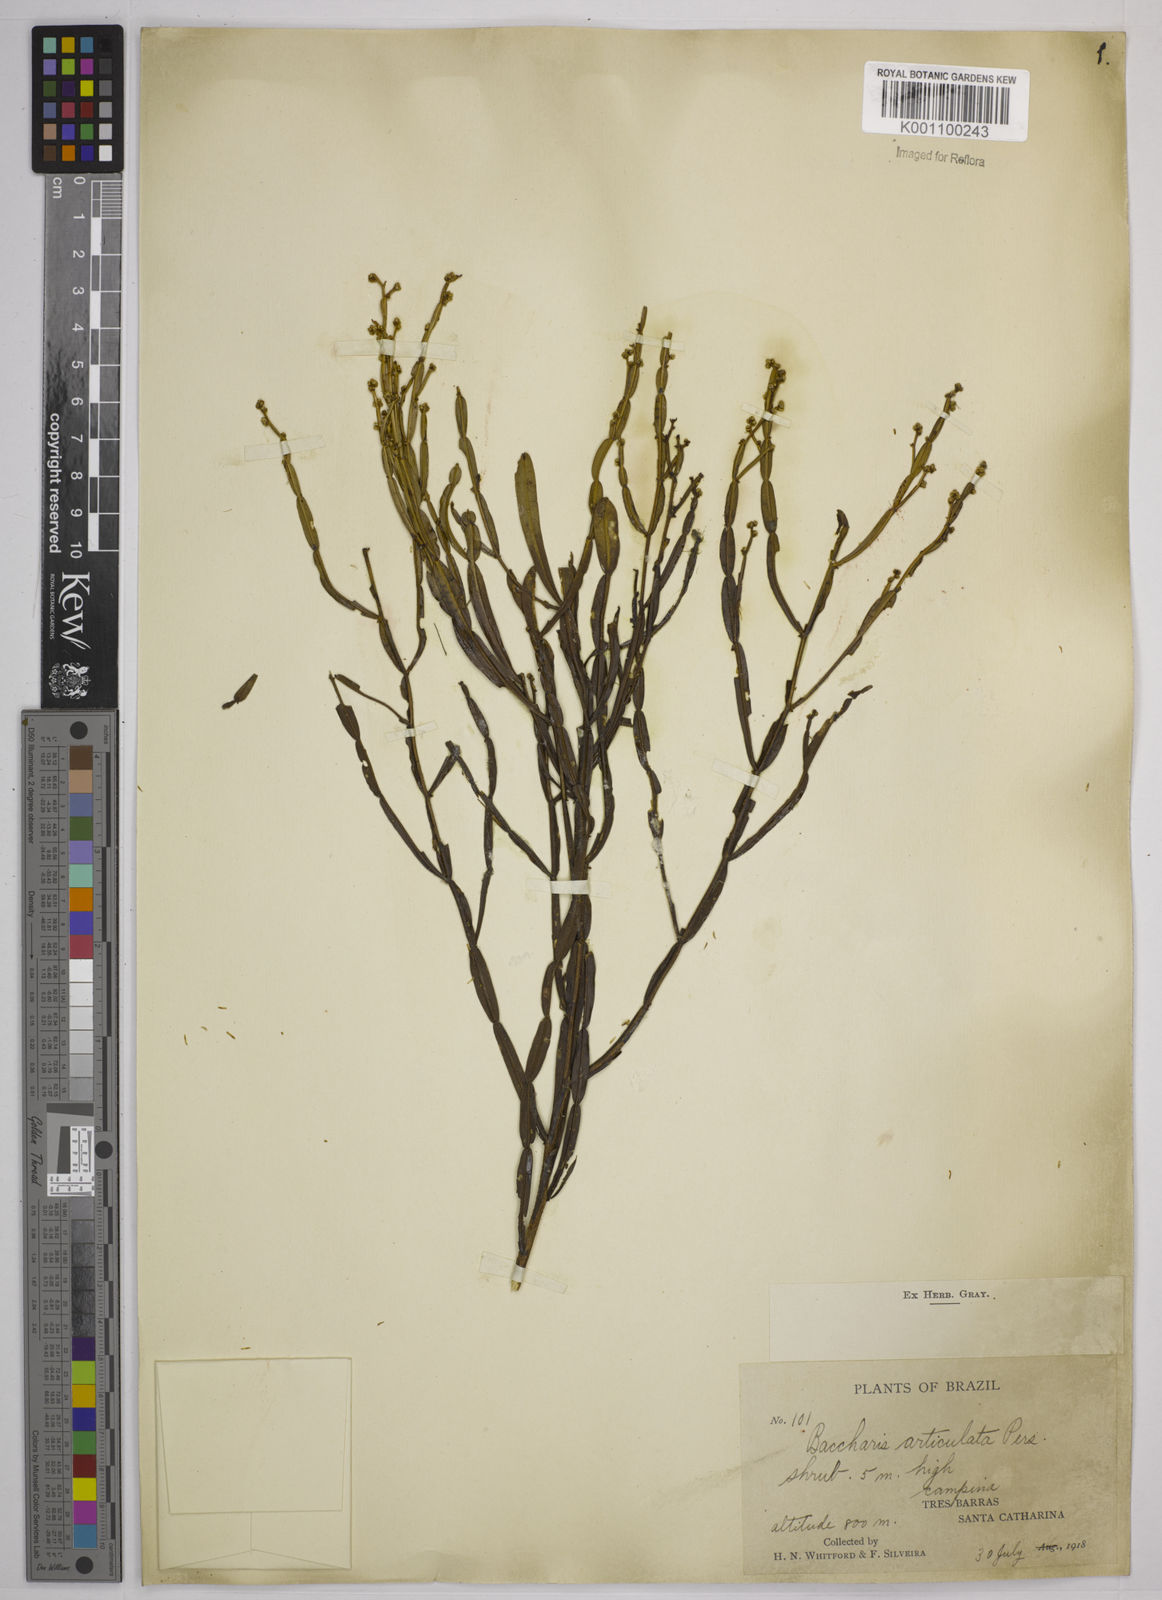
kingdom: Plantae
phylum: Tracheophyta
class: Magnoliopsida
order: Asterales
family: Asteraceae
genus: Baccharis
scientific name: Baccharis
